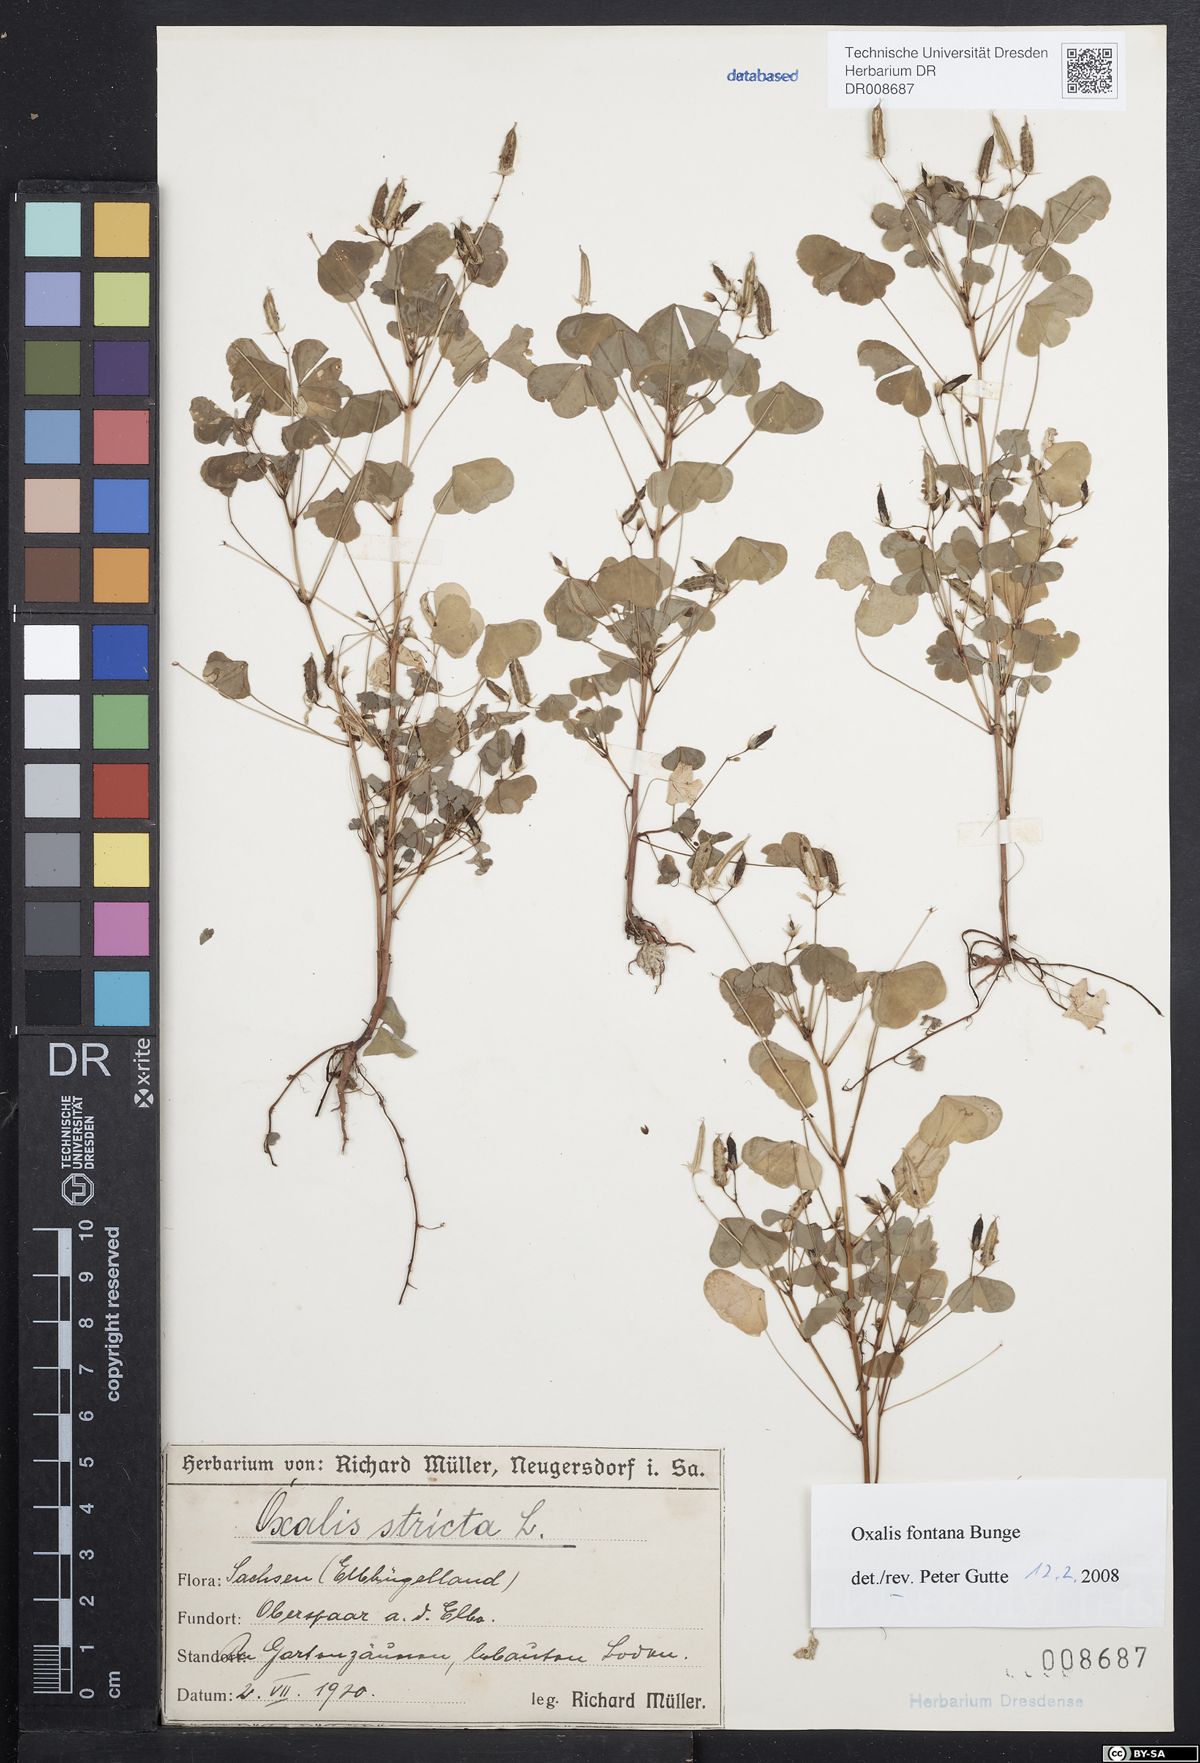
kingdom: Plantae
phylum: Tracheophyta
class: Magnoliopsida
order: Oxalidales
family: Oxalidaceae
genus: Oxalis
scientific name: Oxalis stricta
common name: Upright yellow-sorrel
